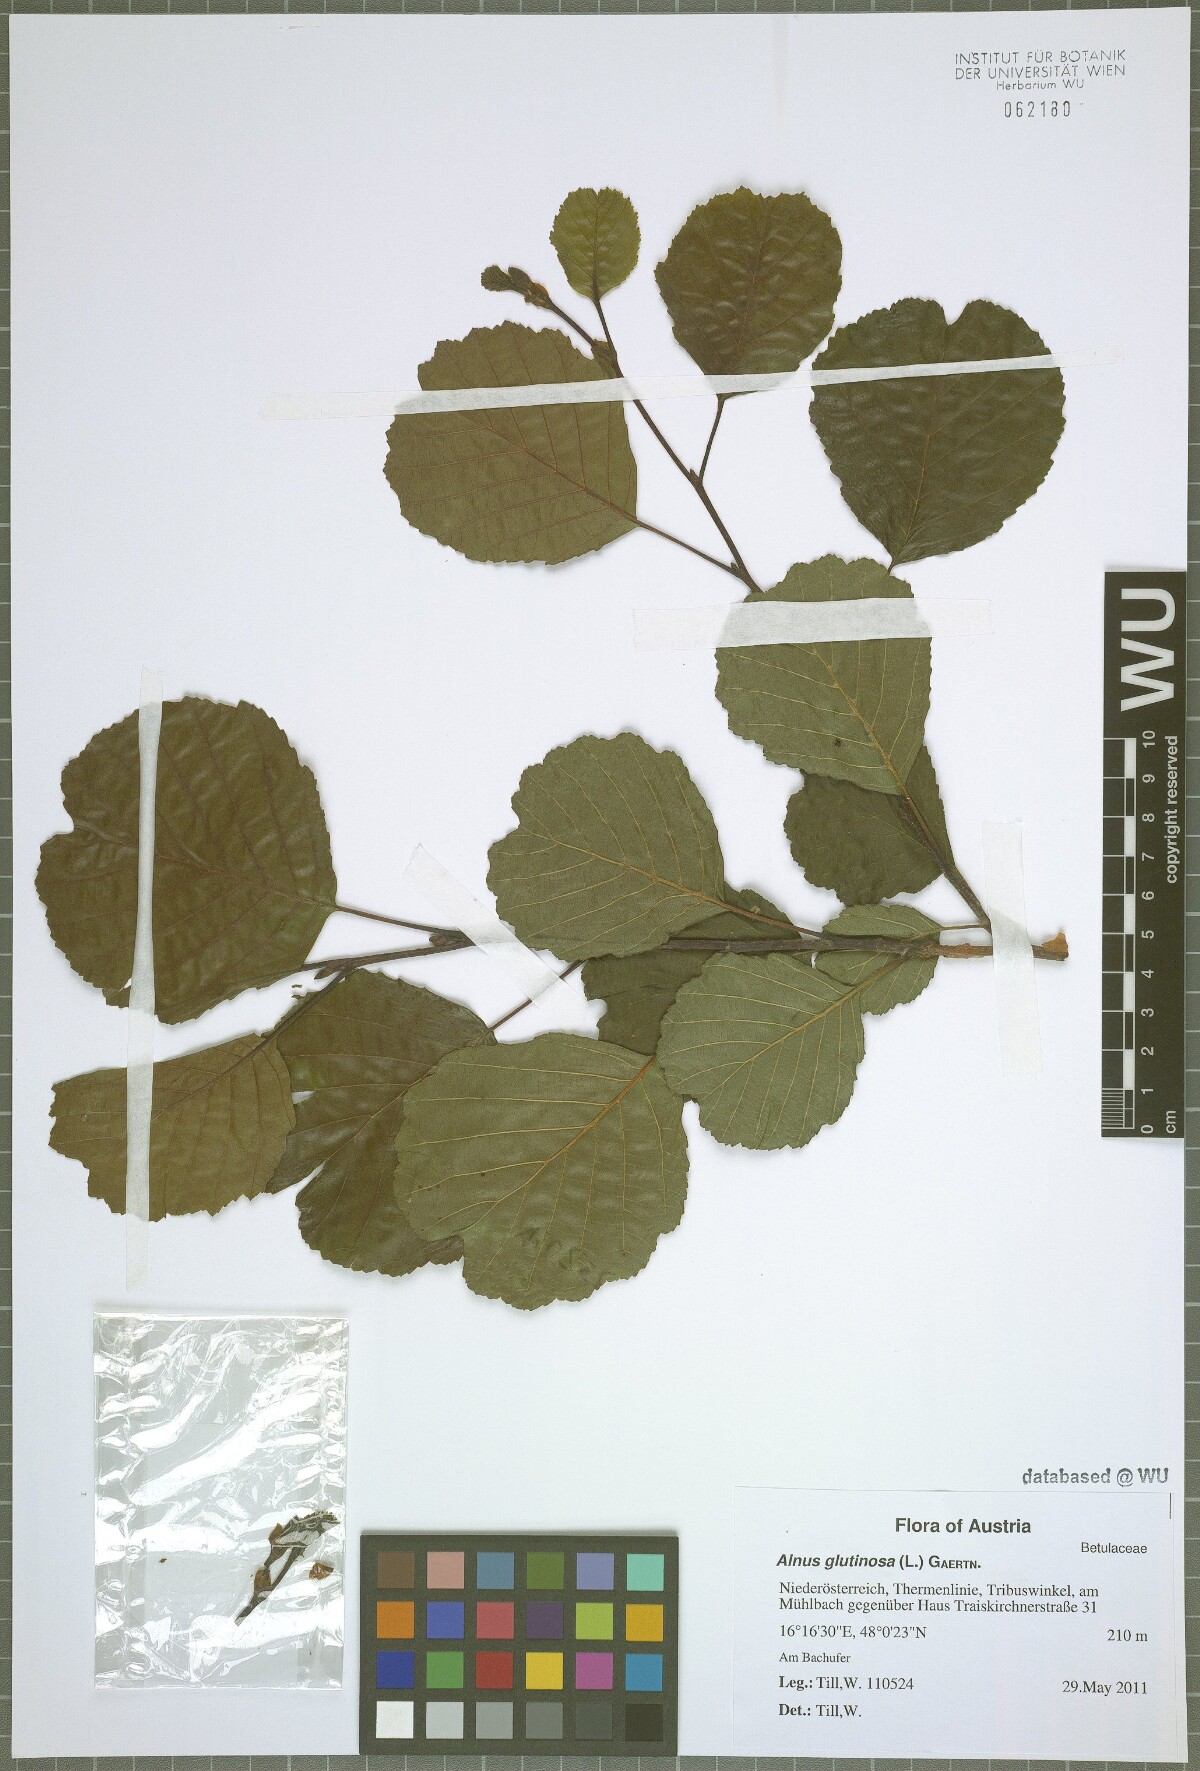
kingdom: Plantae
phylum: Tracheophyta
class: Magnoliopsida
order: Fagales
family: Betulaceae
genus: Alnus
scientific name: Alnus glutinosa
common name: Black alder
